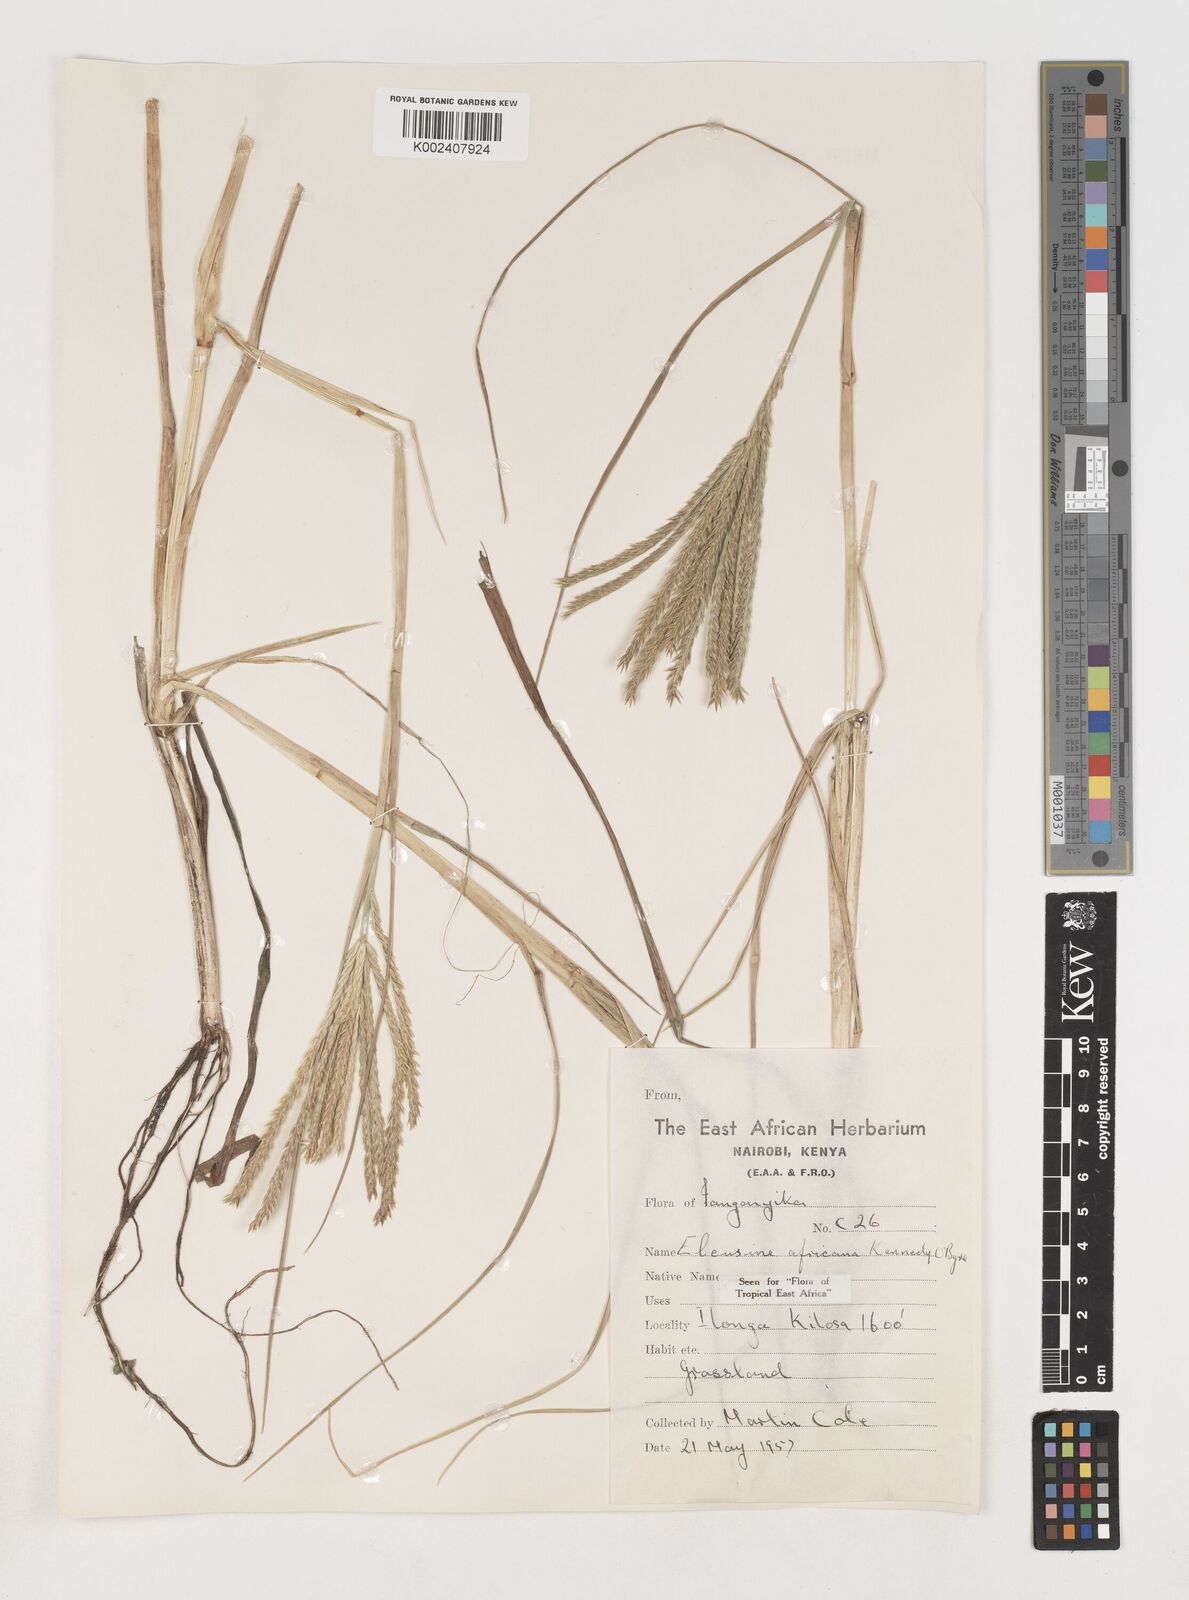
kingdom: Plantae
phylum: Tracheophyta
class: Liliopsida
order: Poales
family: Poaceae
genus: Eleusine
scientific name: Eleusine africana
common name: Wild african finger millet
